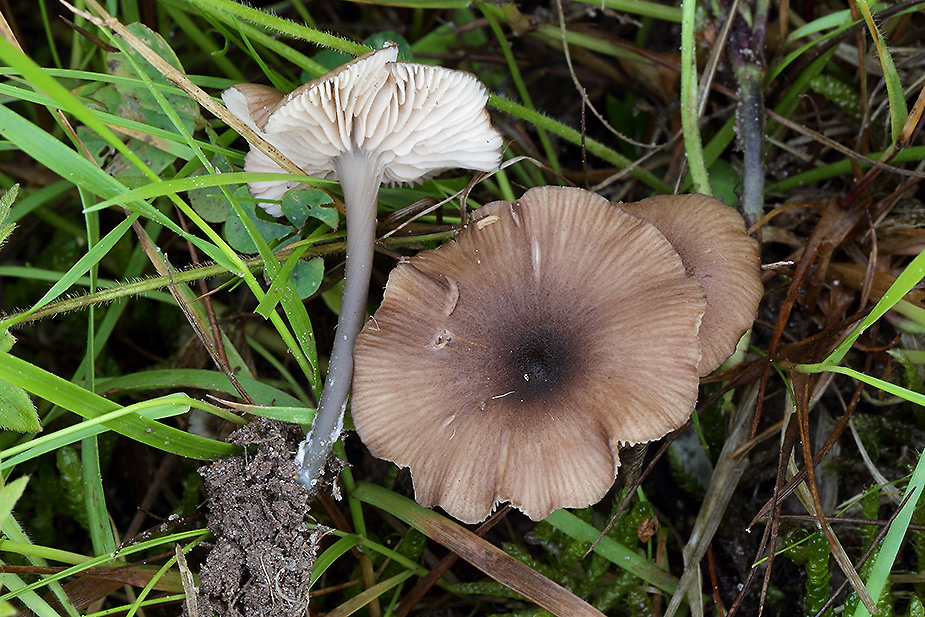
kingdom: Fungi
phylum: Basidiomycota
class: Agaricomycetes
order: Agaricales
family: Entolomataceae
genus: Entoloma
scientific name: Entoloma allospermum
